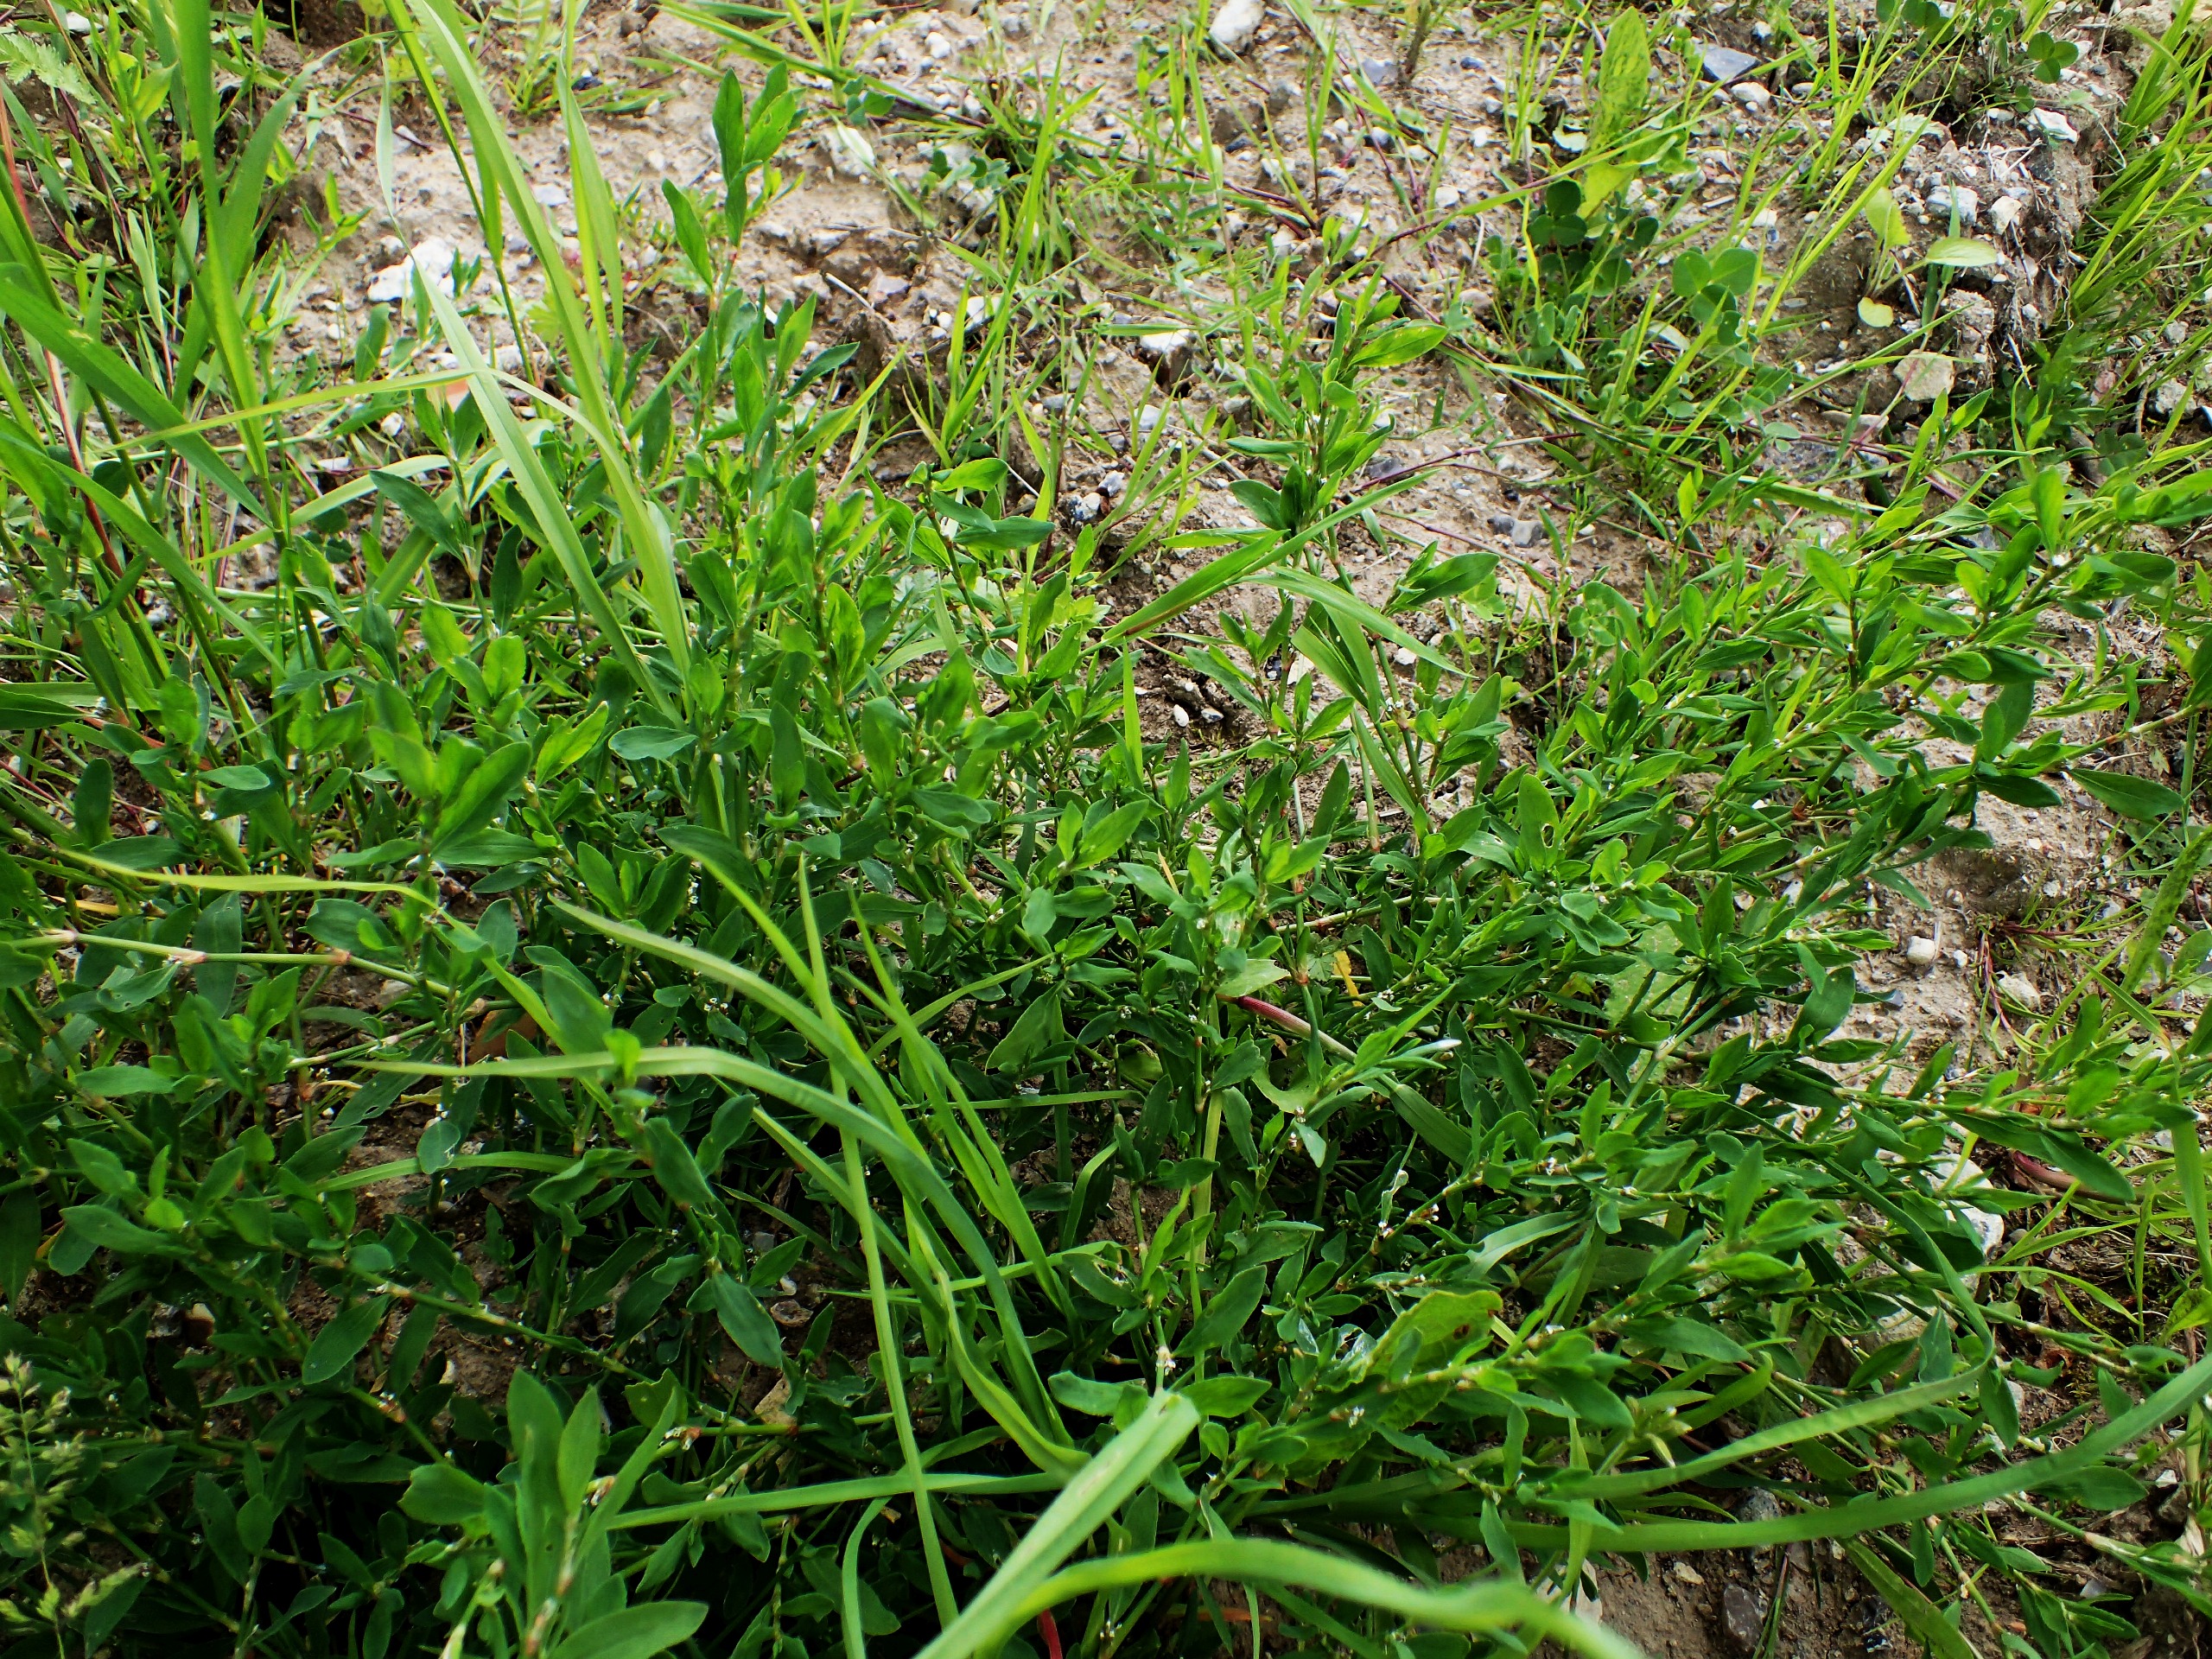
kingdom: Plantae
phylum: Tracheophyta
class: Magnoliopsida
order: Caryophyllales
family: Polygonaceae
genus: Polygonum
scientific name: Polygonum aviculare
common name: Vej-pileurt
